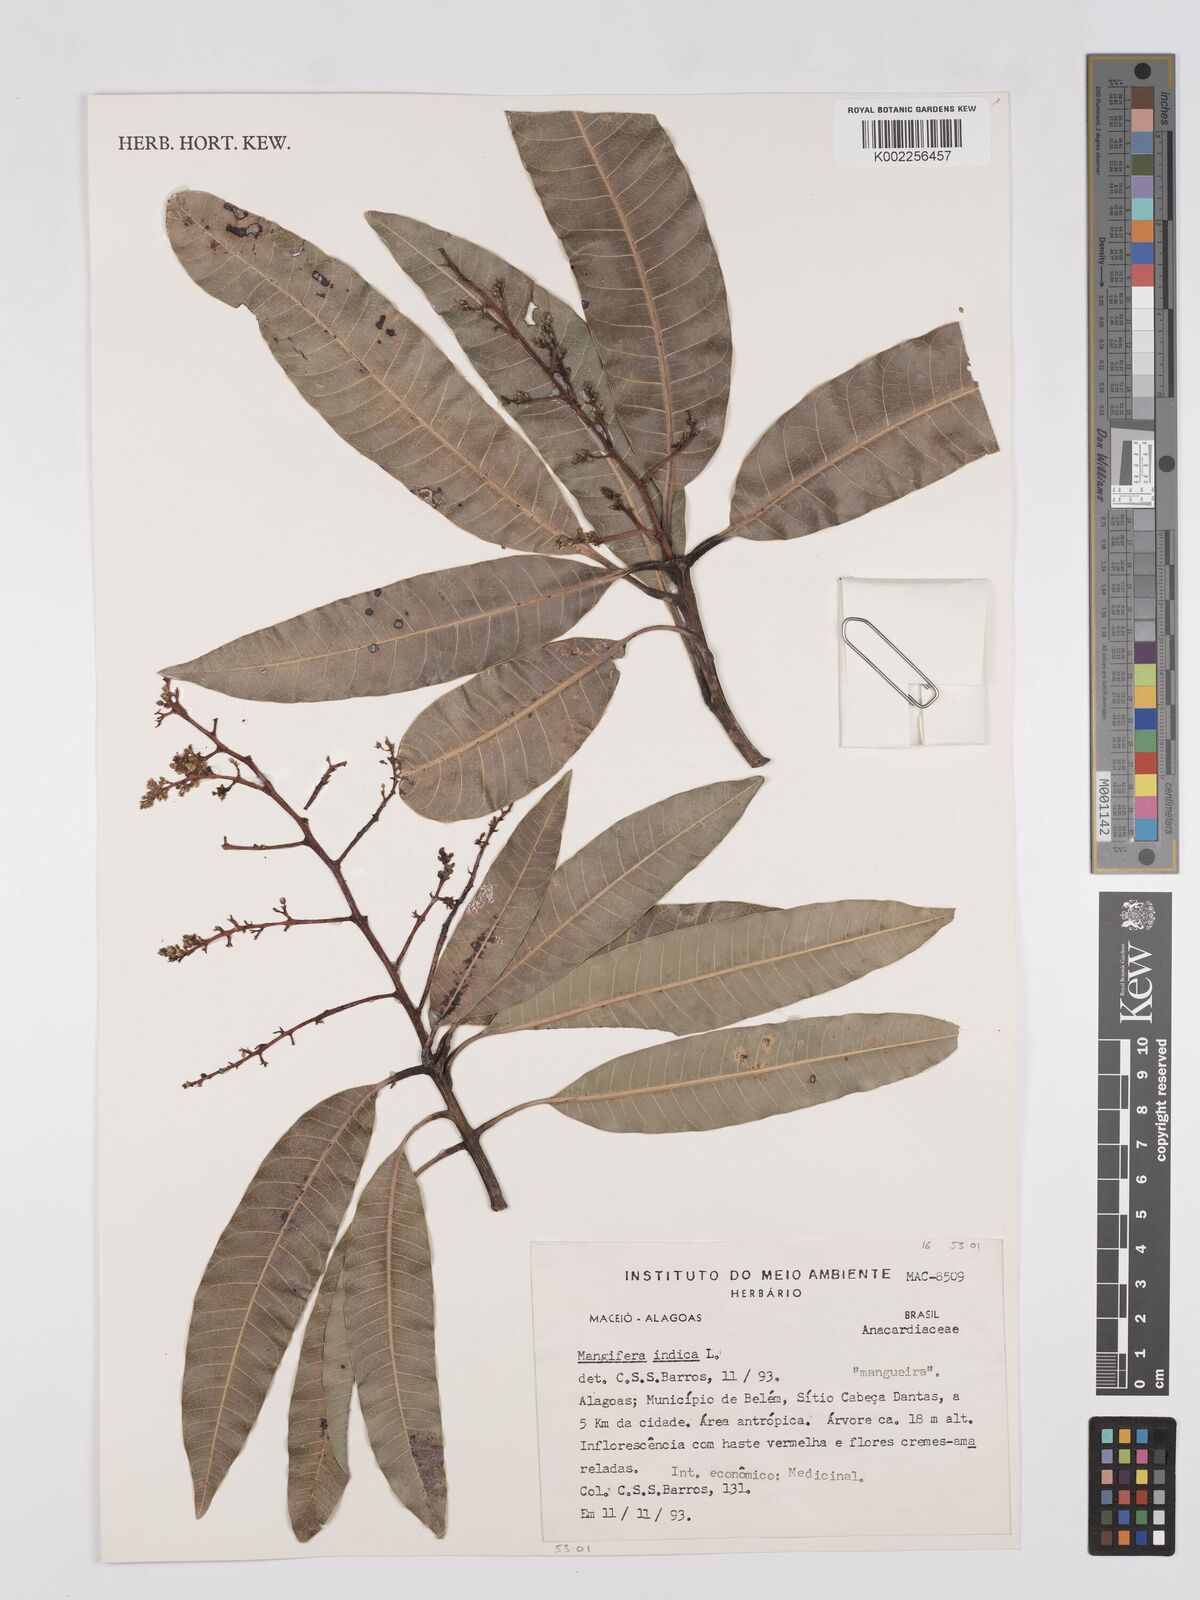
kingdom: Plantae
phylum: Tracheophyta
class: Magnoliopsida
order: Sapindales
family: Anacardiaceae
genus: Mangifera
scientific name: Mangifera indica
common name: Mango
